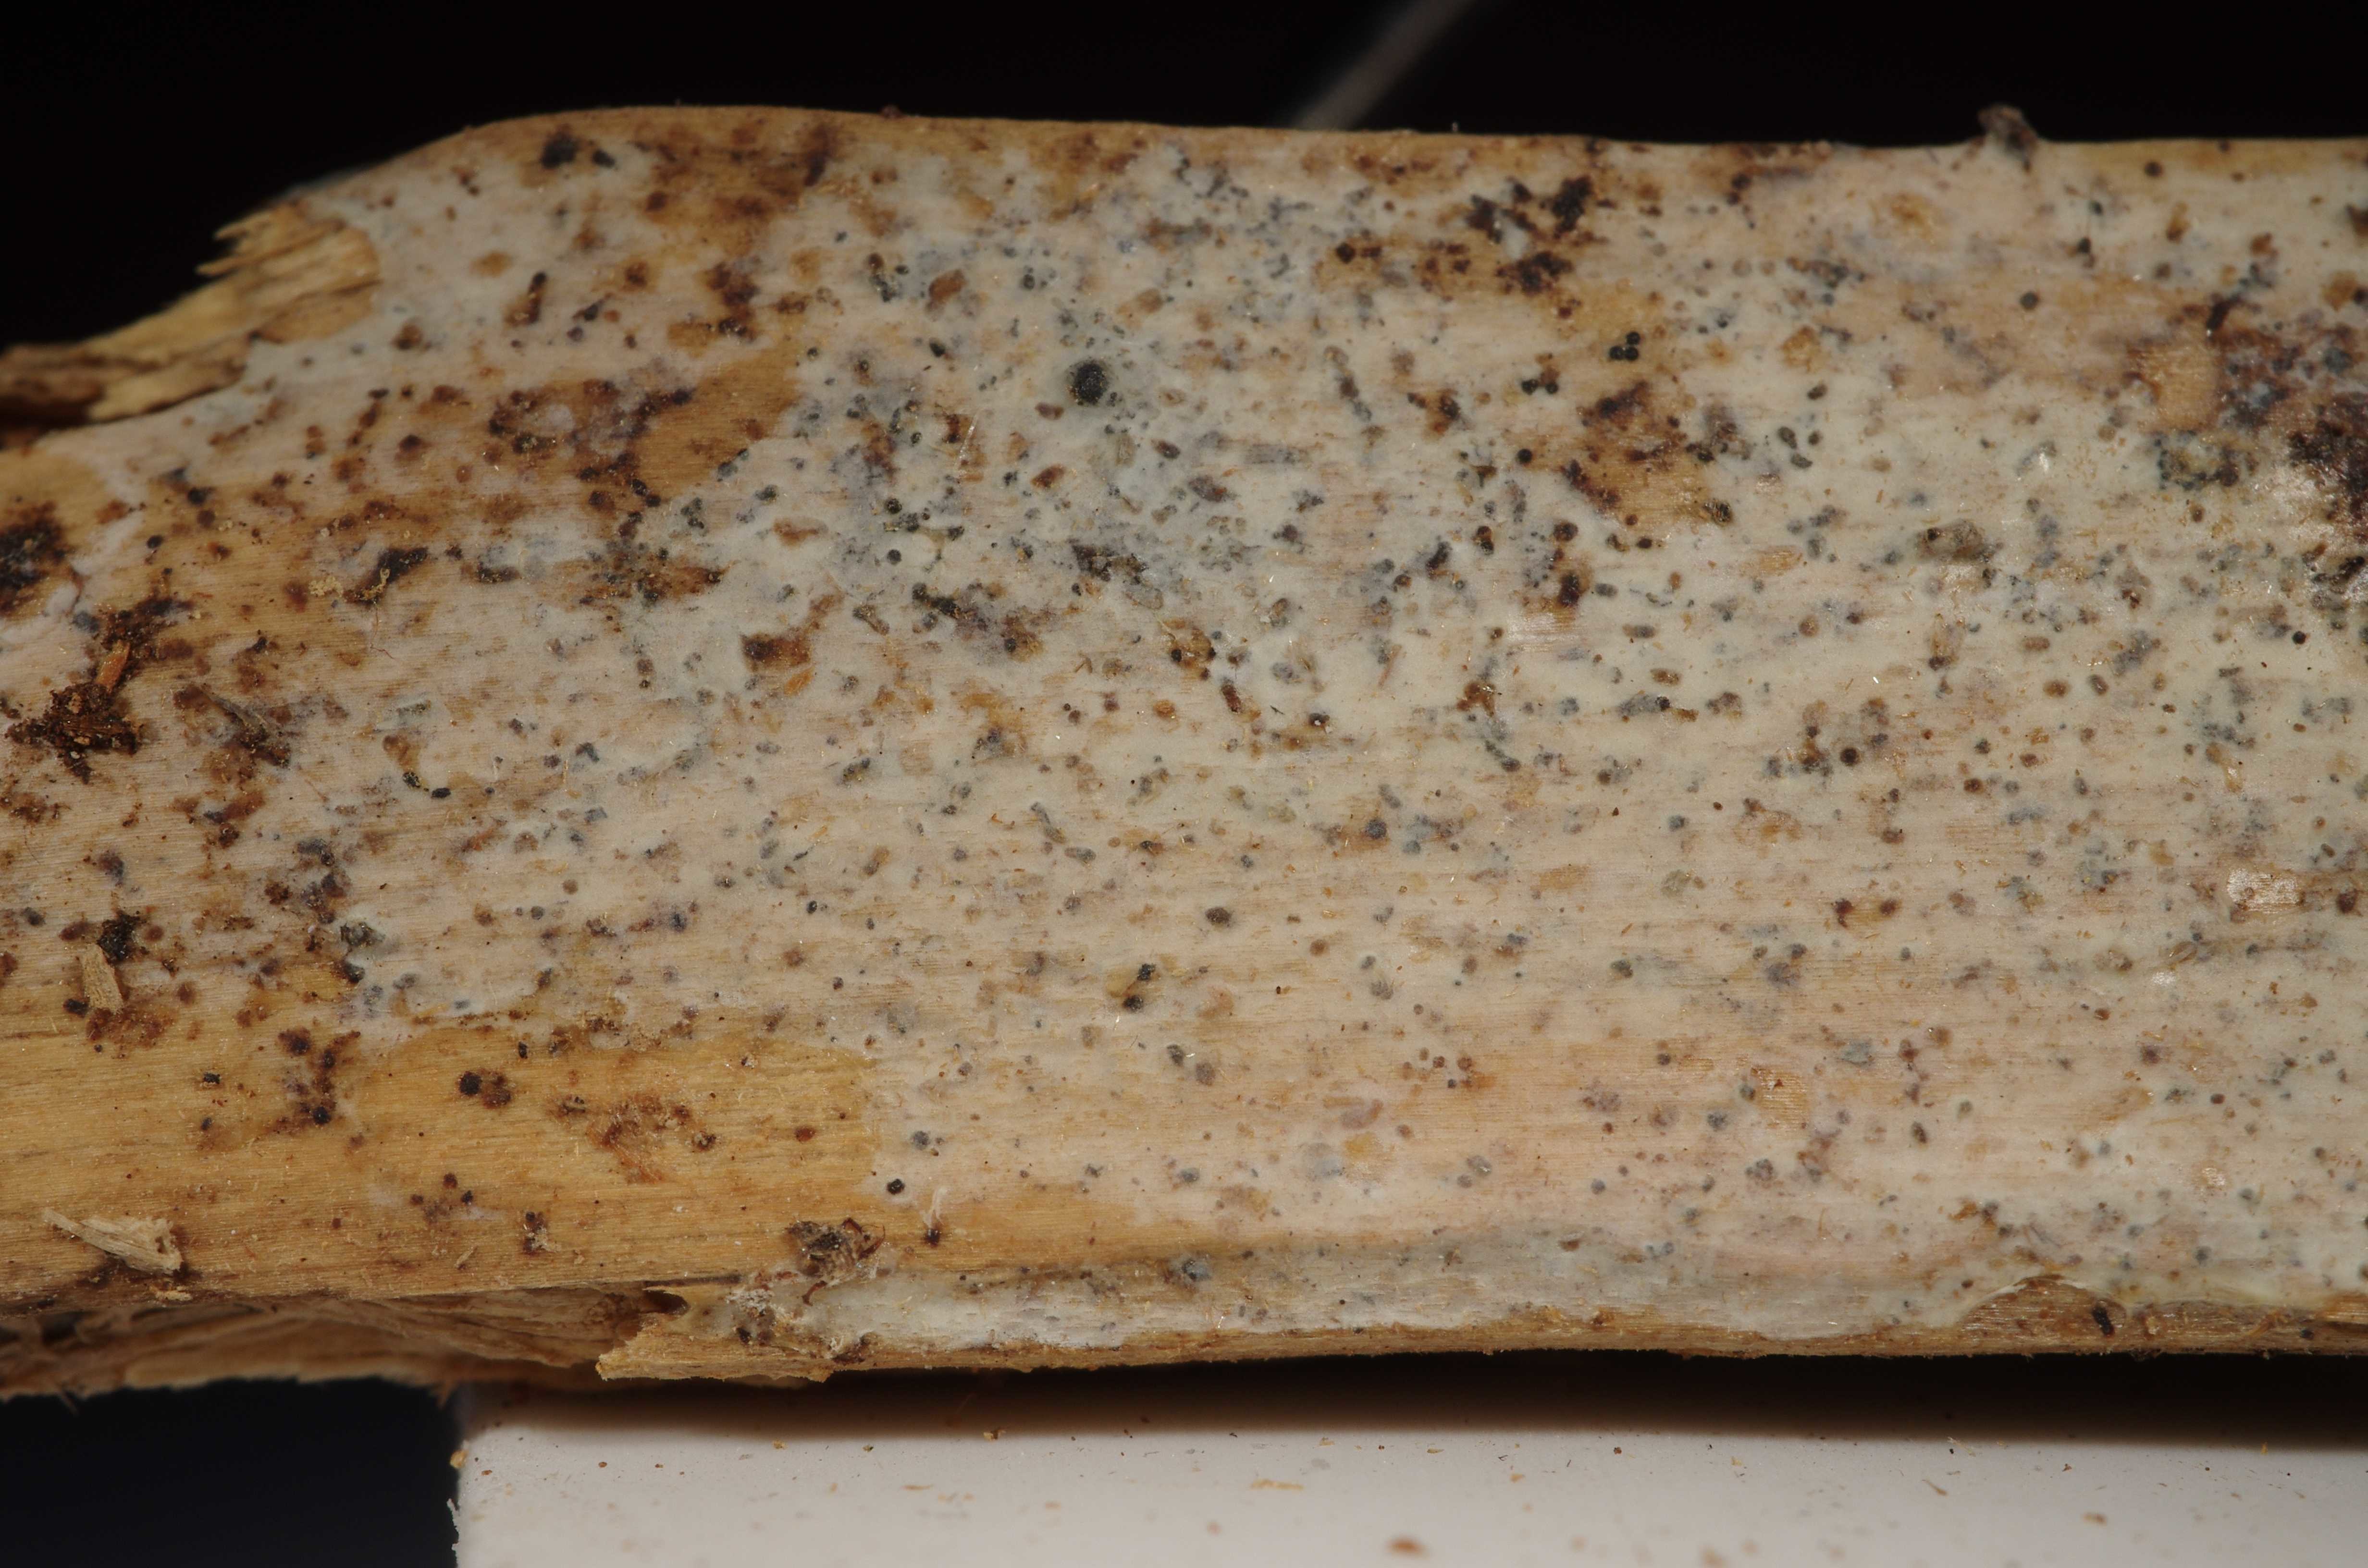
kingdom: Fungi
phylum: Basidiomycota
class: Agaricomycetes
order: Polyporales
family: Steccherinaceae
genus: Cabalodontia
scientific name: Cabalodontia subcretacea
